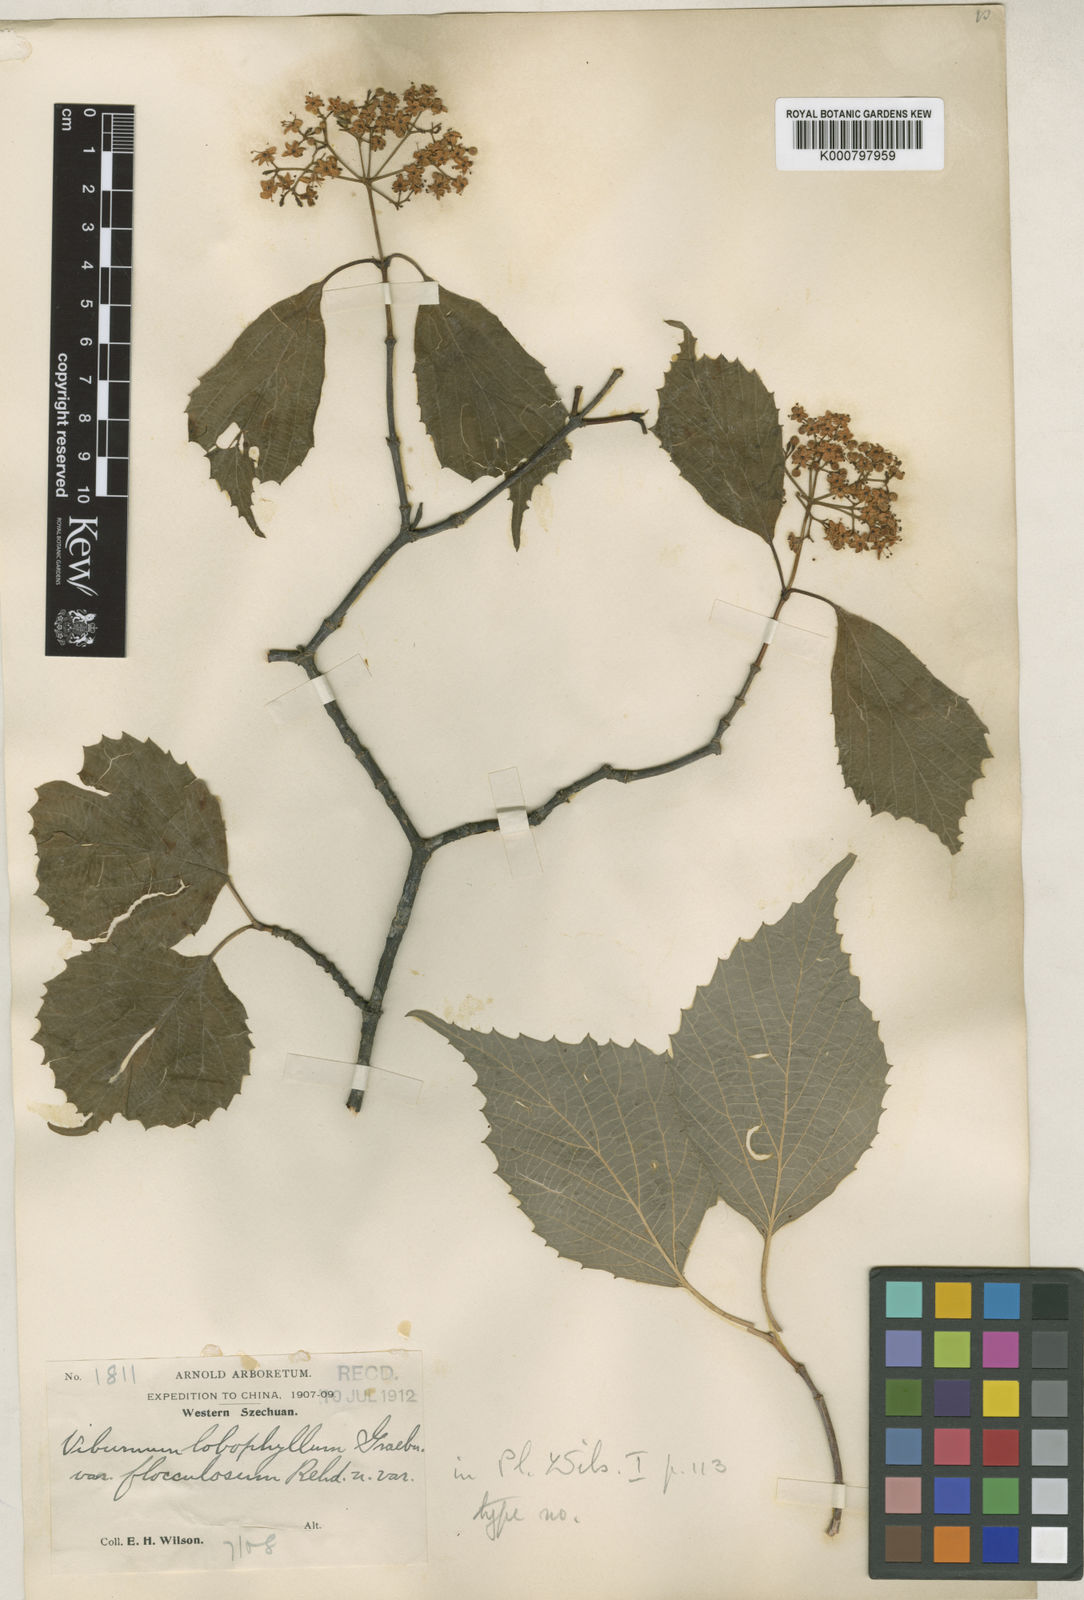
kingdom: Plantae
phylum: Tracheophyta
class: Magnoliopsida
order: Dipsacales
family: Viburnaceae
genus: Viburnum
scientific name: Viburnum betulifolium
